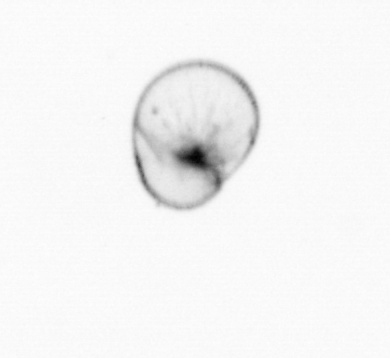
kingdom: Chromista
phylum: Myzozoa
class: Dinophyceae
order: Noctilucales
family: Noctilucaceae
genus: Noctiluca
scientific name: Noctiluca scintillans
